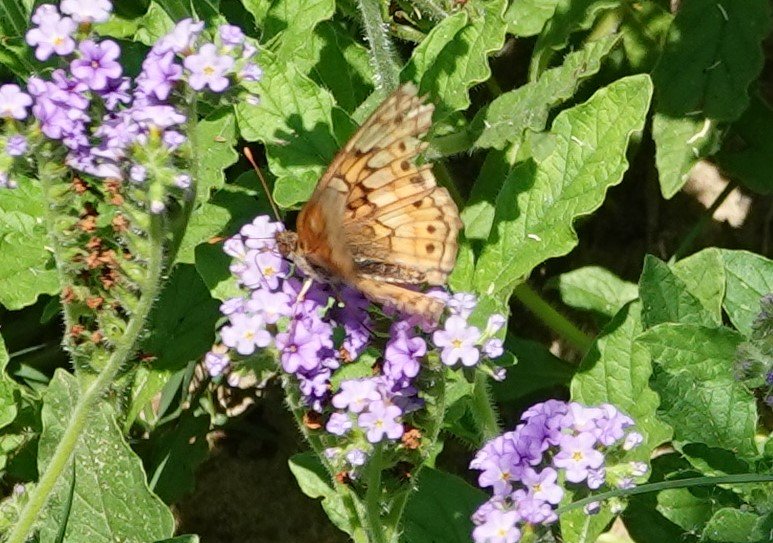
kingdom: Animalia
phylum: Arthropoda
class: Insecta
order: Lepidoptera
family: Nymphalidae
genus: Euptoieta
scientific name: Euptoieta claudia
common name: Variegated Fritillary
